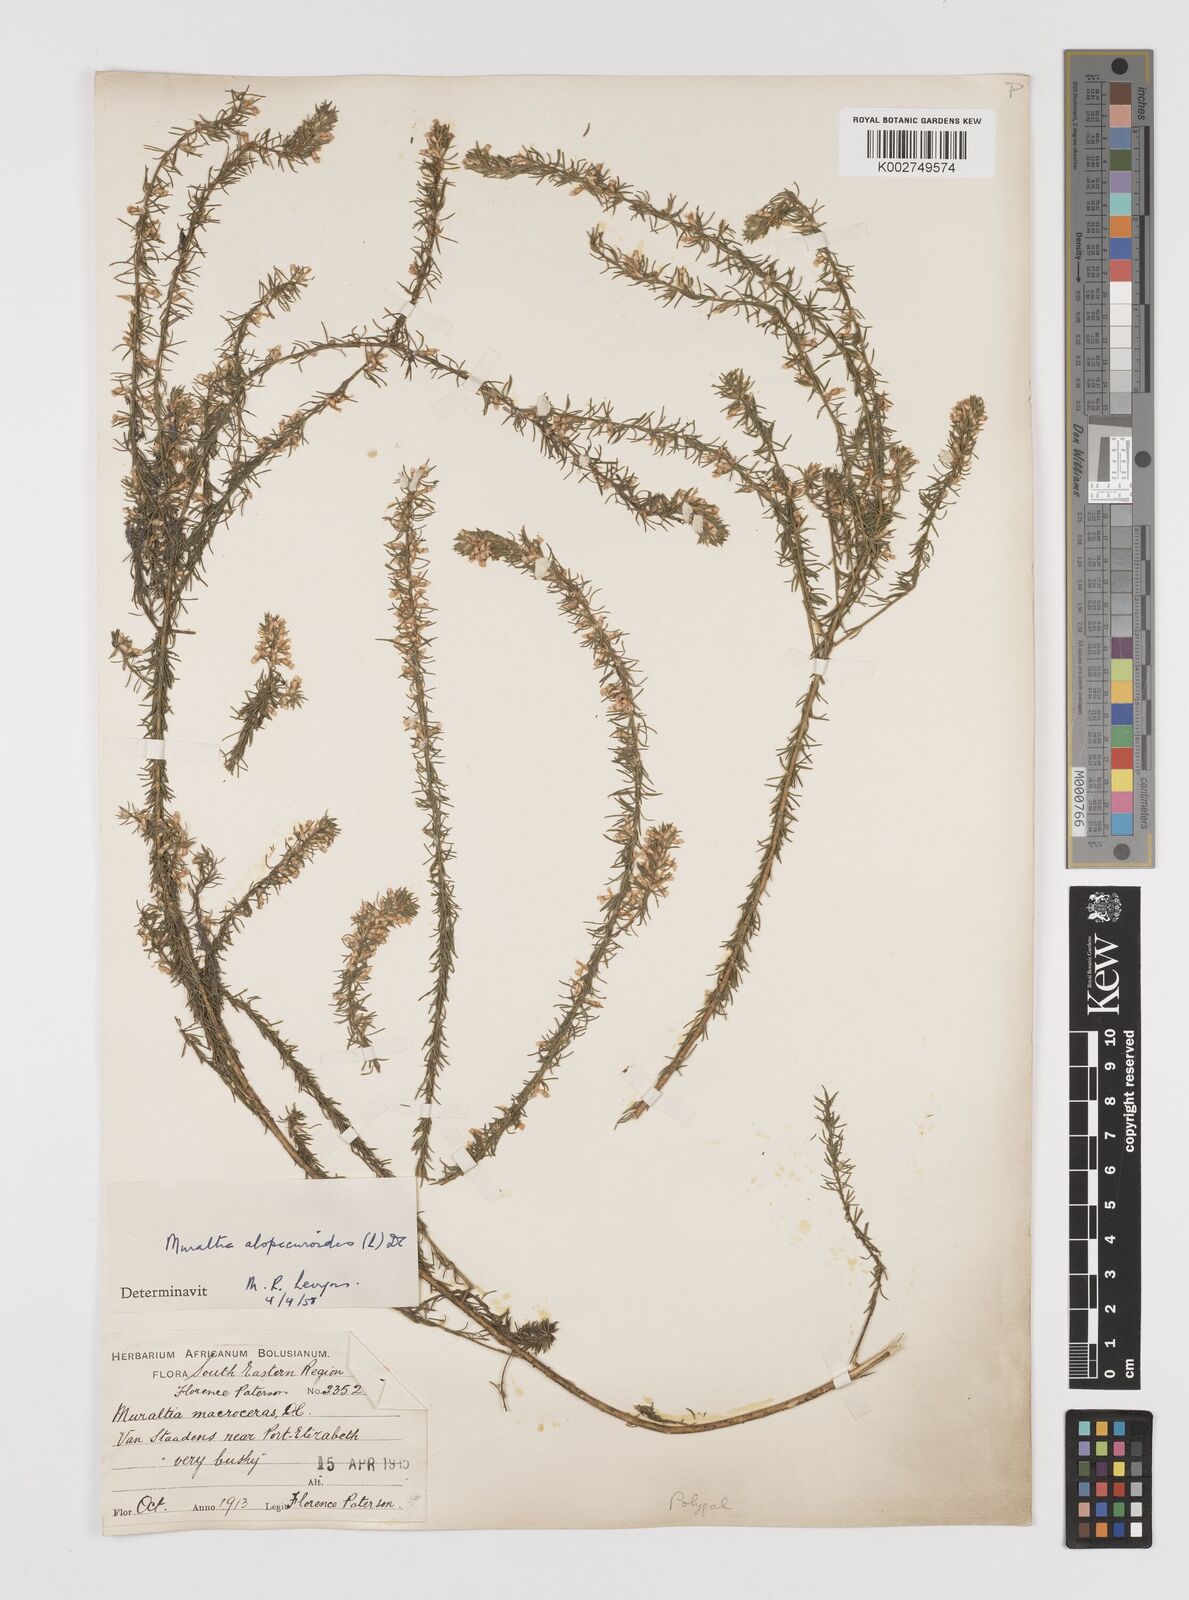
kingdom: Plantae
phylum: Tracheophyta
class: Magnoliopsida
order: Fabales
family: Polygalaceae
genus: Muraltia
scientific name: Muraltia alopecuroides
